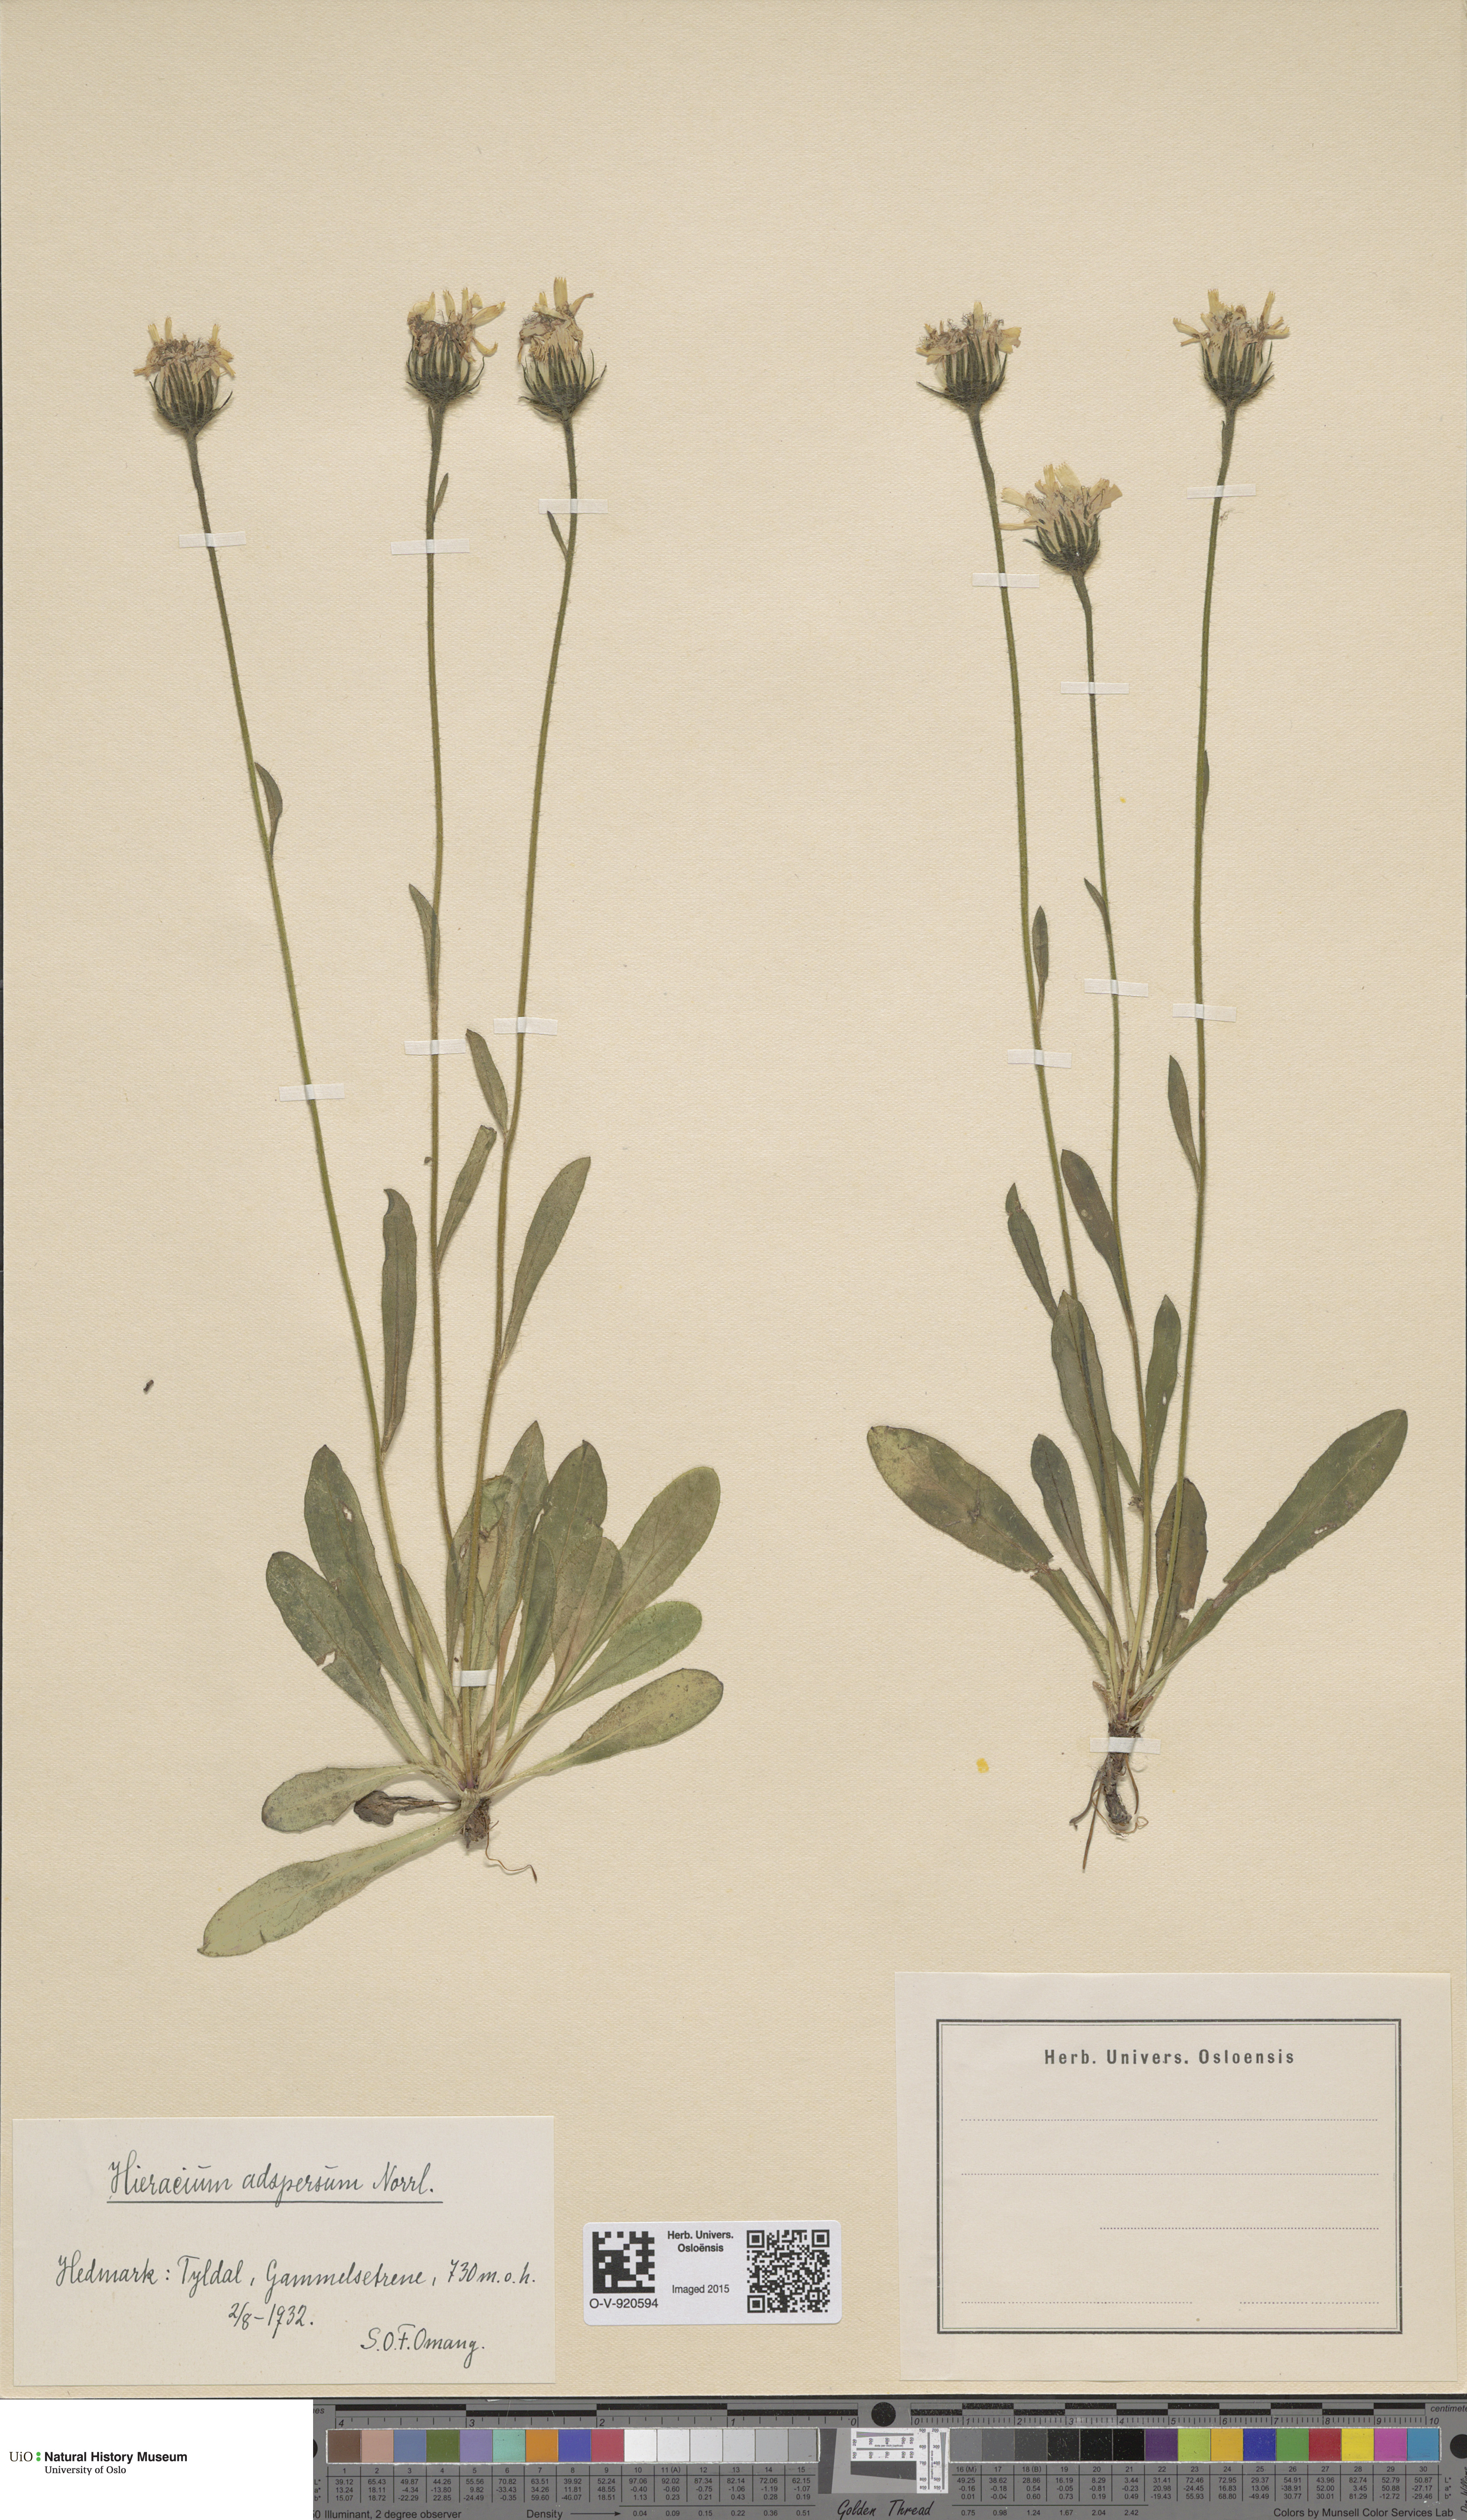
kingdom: Plantae
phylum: Tracheophyta
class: Magnoliopsida
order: Asterales
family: Asteraceae
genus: Hieracium
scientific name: Hieracium alpinum
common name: Alpine hawkweed
